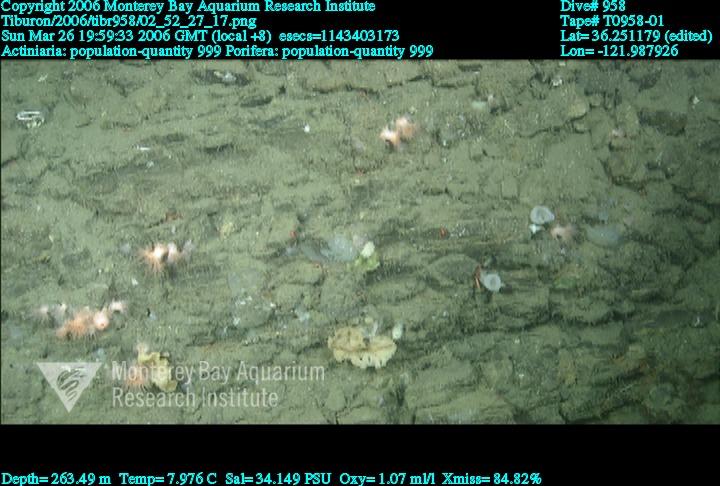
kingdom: Animalia
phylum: Porifera
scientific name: Porifera
